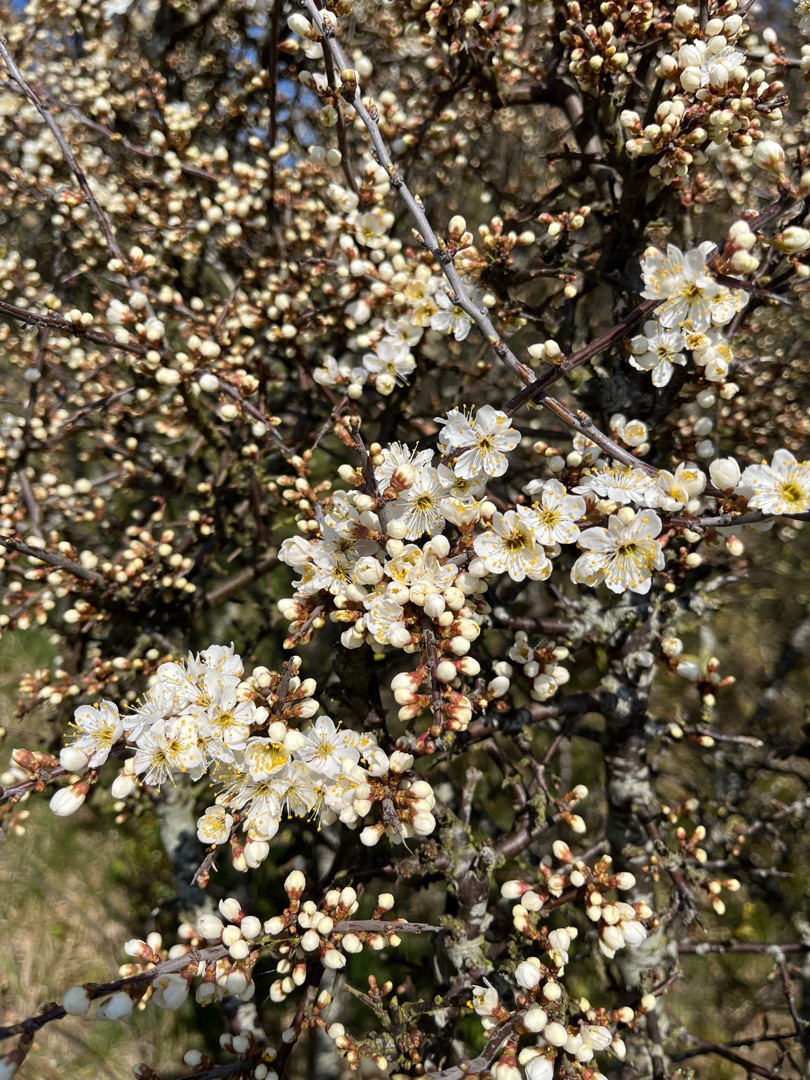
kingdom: Plantae
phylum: Tracheophyta
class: Magnoliopsida
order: Rosales
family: Rosaceae
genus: Prunus
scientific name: Prunus spinosa
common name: Slåen
